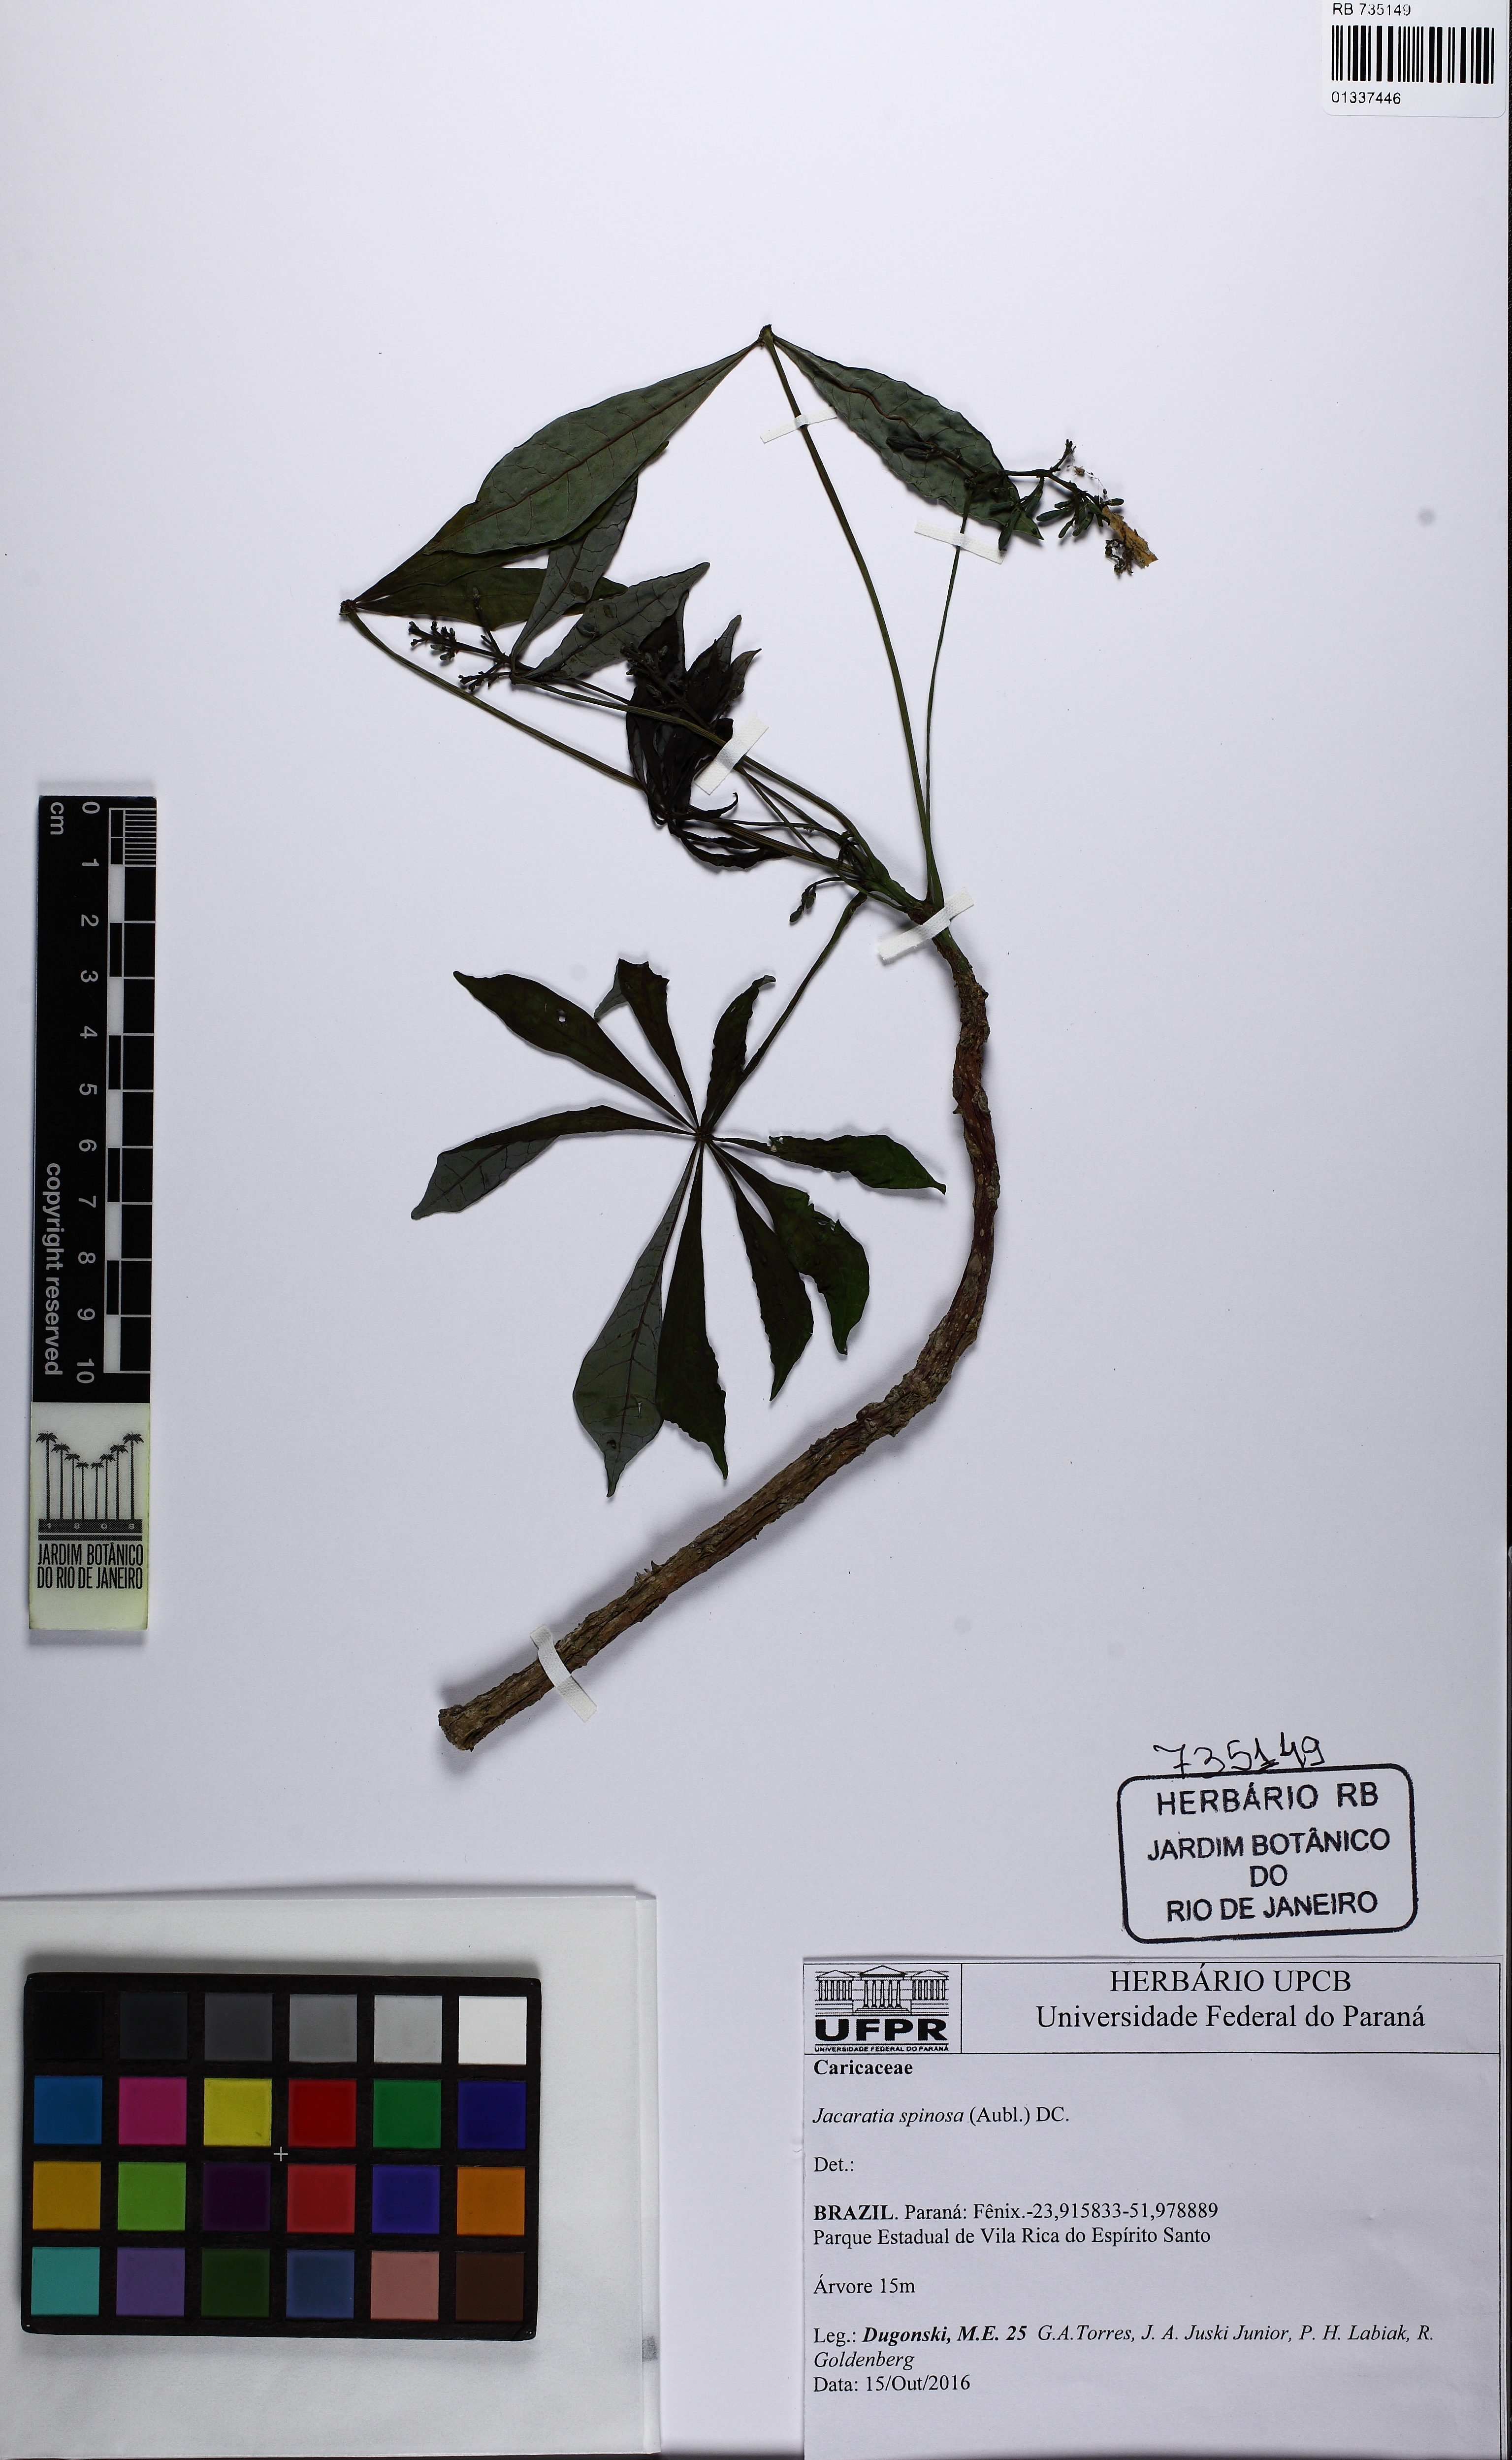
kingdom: Plantae
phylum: Tracheophyta
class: Magnoliopsida
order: Brassicales
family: Caricaceae
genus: Jacaratia
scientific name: Jacaratia spinosa
